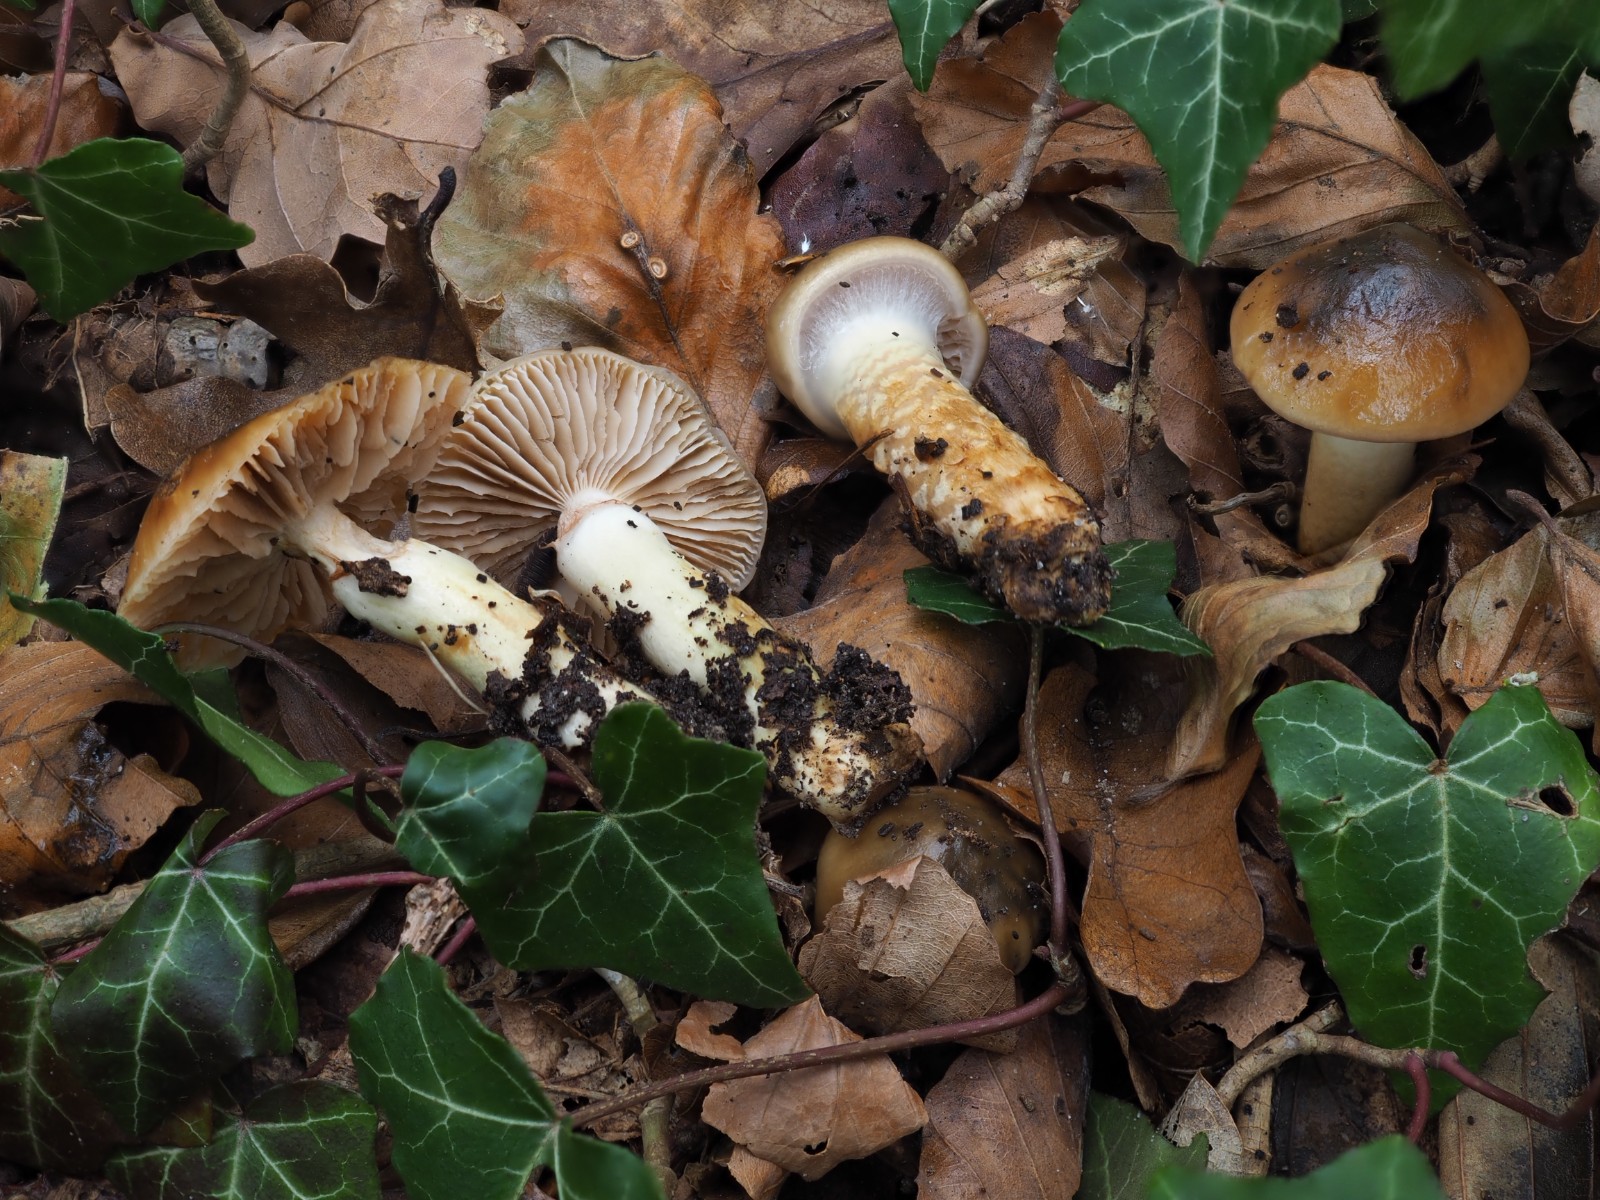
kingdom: Fungi
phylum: Basidiomycota
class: Agaricomycetes
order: Agaricales
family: Cortinariaceae
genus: Cortinarius
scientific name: Cortinarius trivialis
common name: brunslimet slørhat
